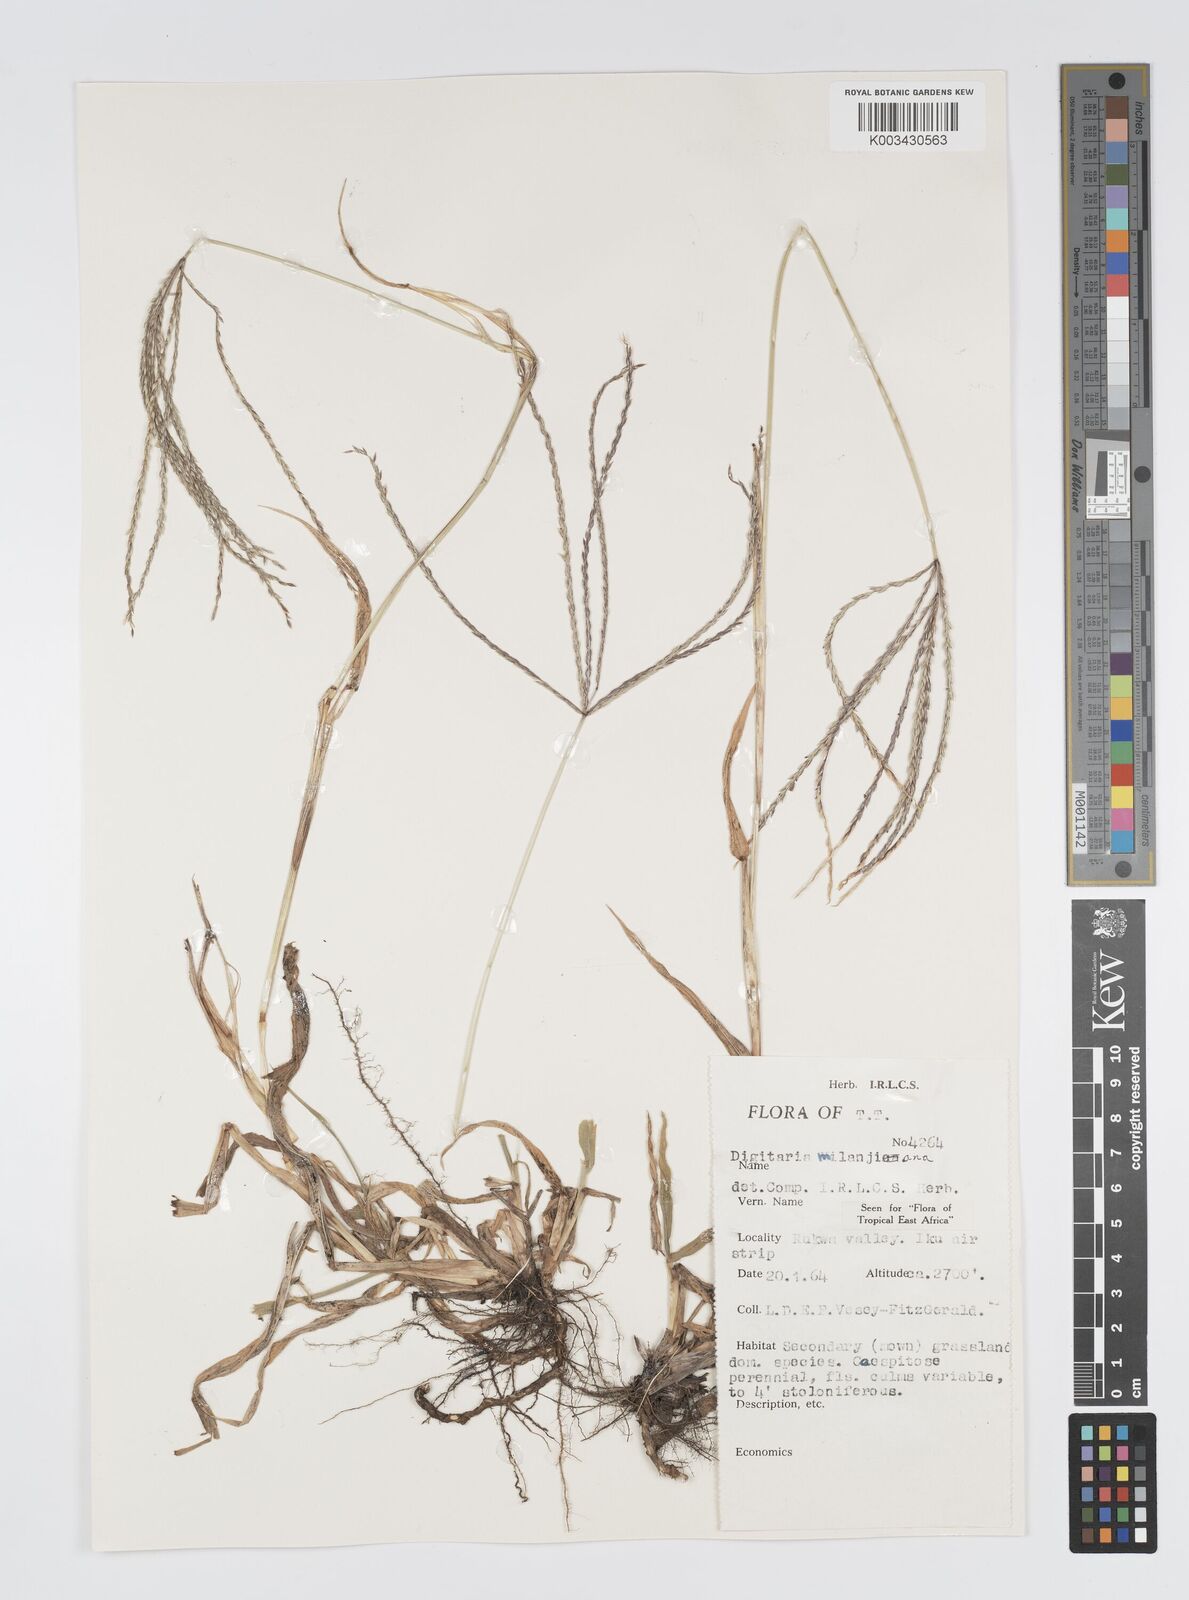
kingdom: Plantae
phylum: Tracheophyta
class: Liliopsida
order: Poales
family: Poaceae
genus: Digitaria
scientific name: Digitaria milanjiana
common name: Madagascar crabgrass
